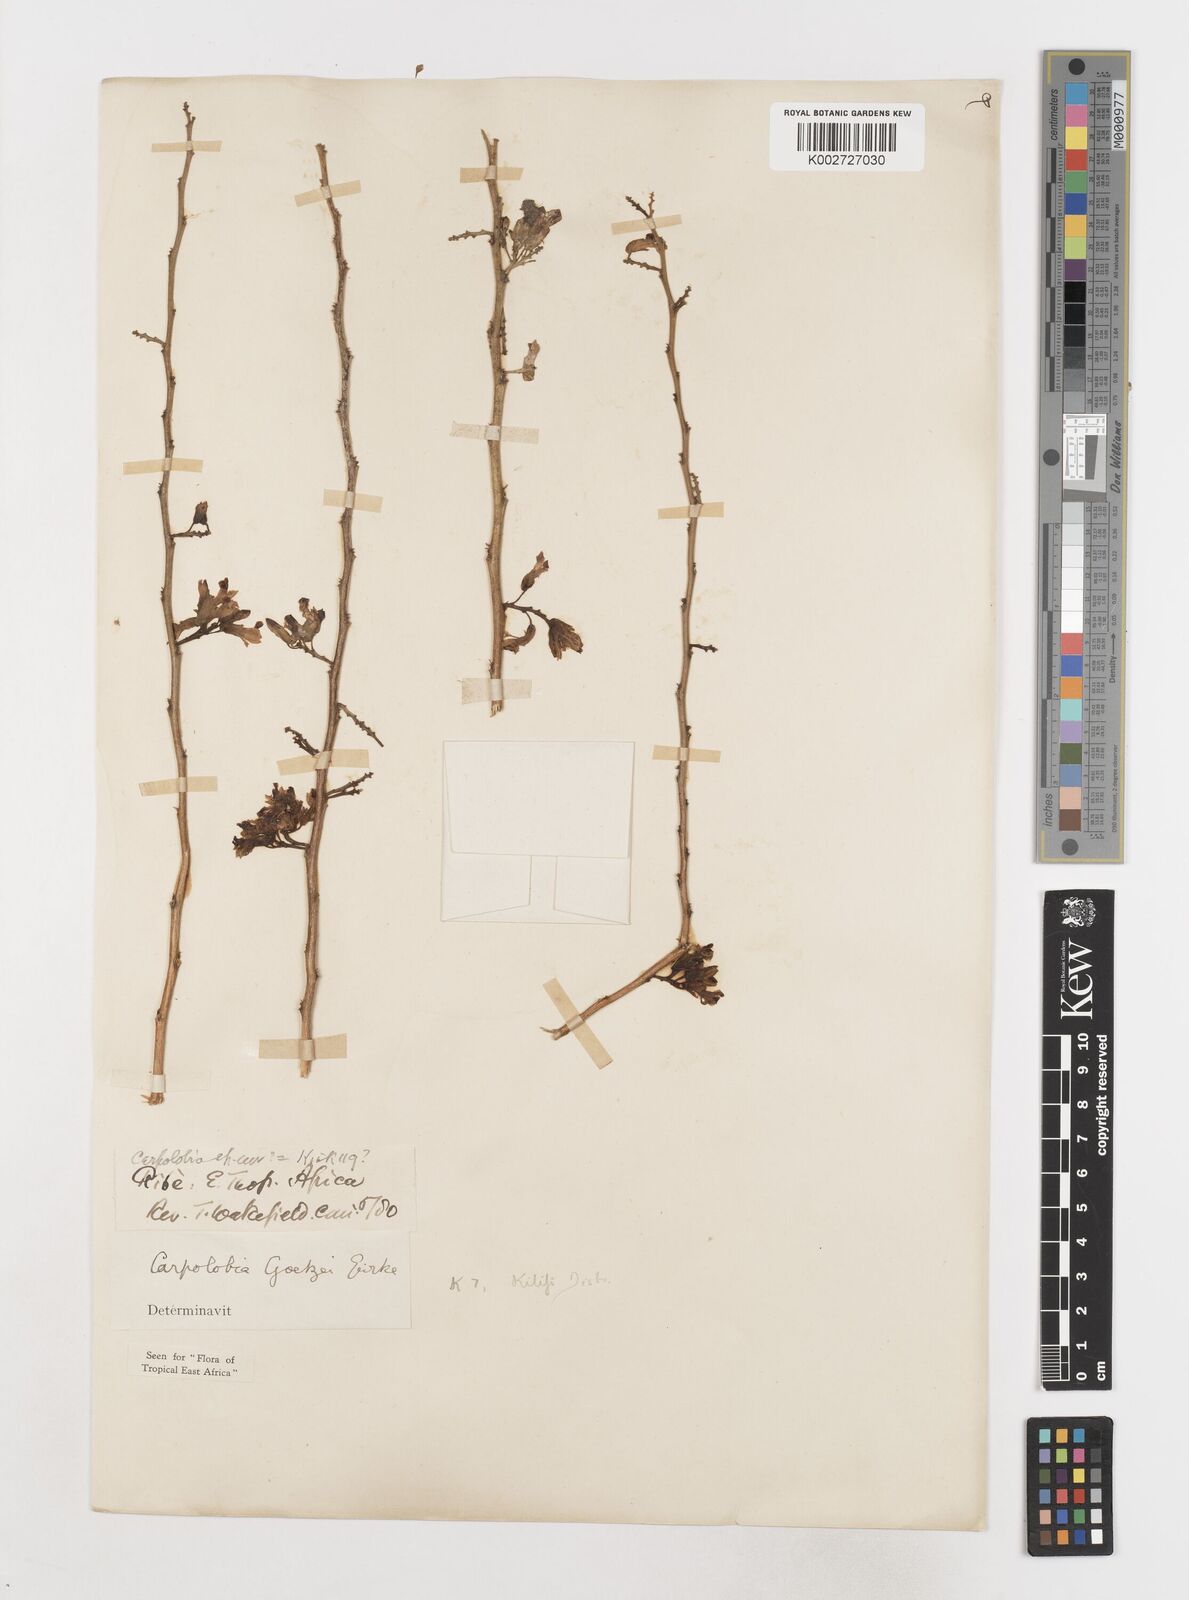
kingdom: Plantae
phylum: Tracheophyta
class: Magnoliopsida
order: Fabales
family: Polygalaceae
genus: Carpolobia
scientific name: Carpolobia goetzei
